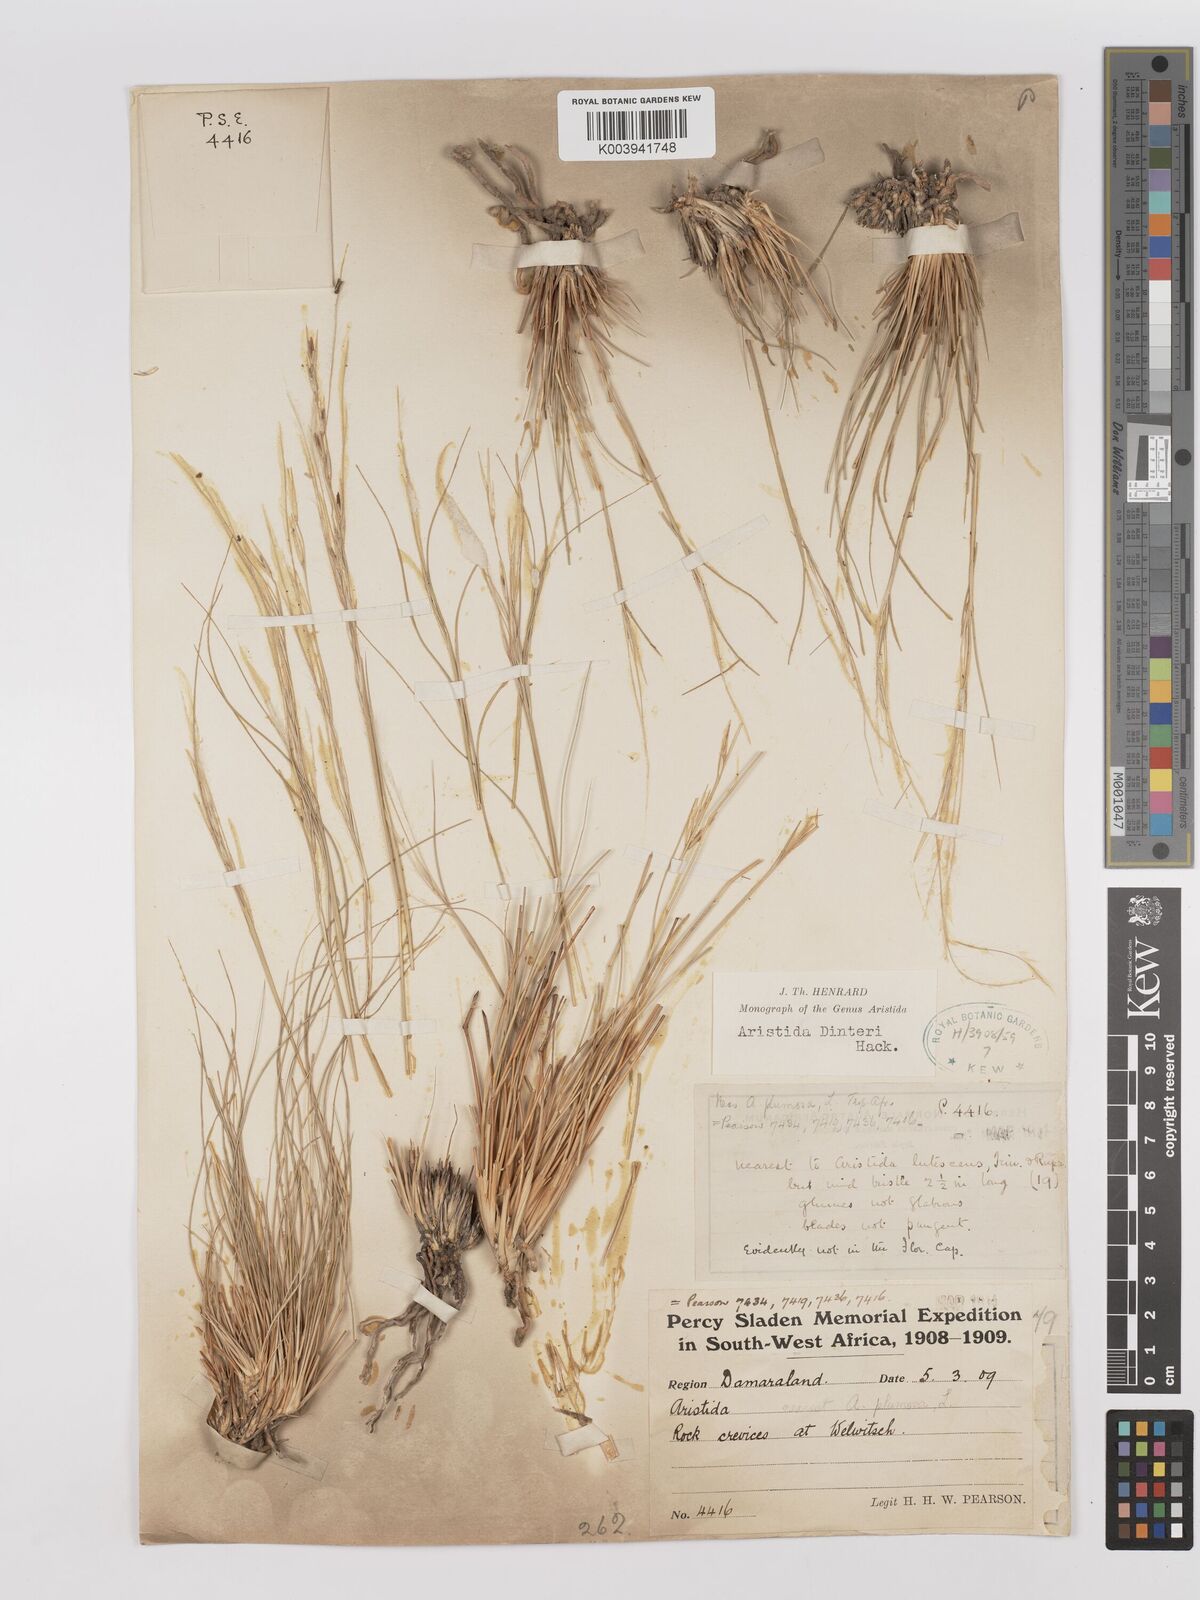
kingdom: Plantae
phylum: Tracheophyta
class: Liliopsida
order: Poales
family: Poaceae
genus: Stipagrostis
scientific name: Stipagrostis dinteri
